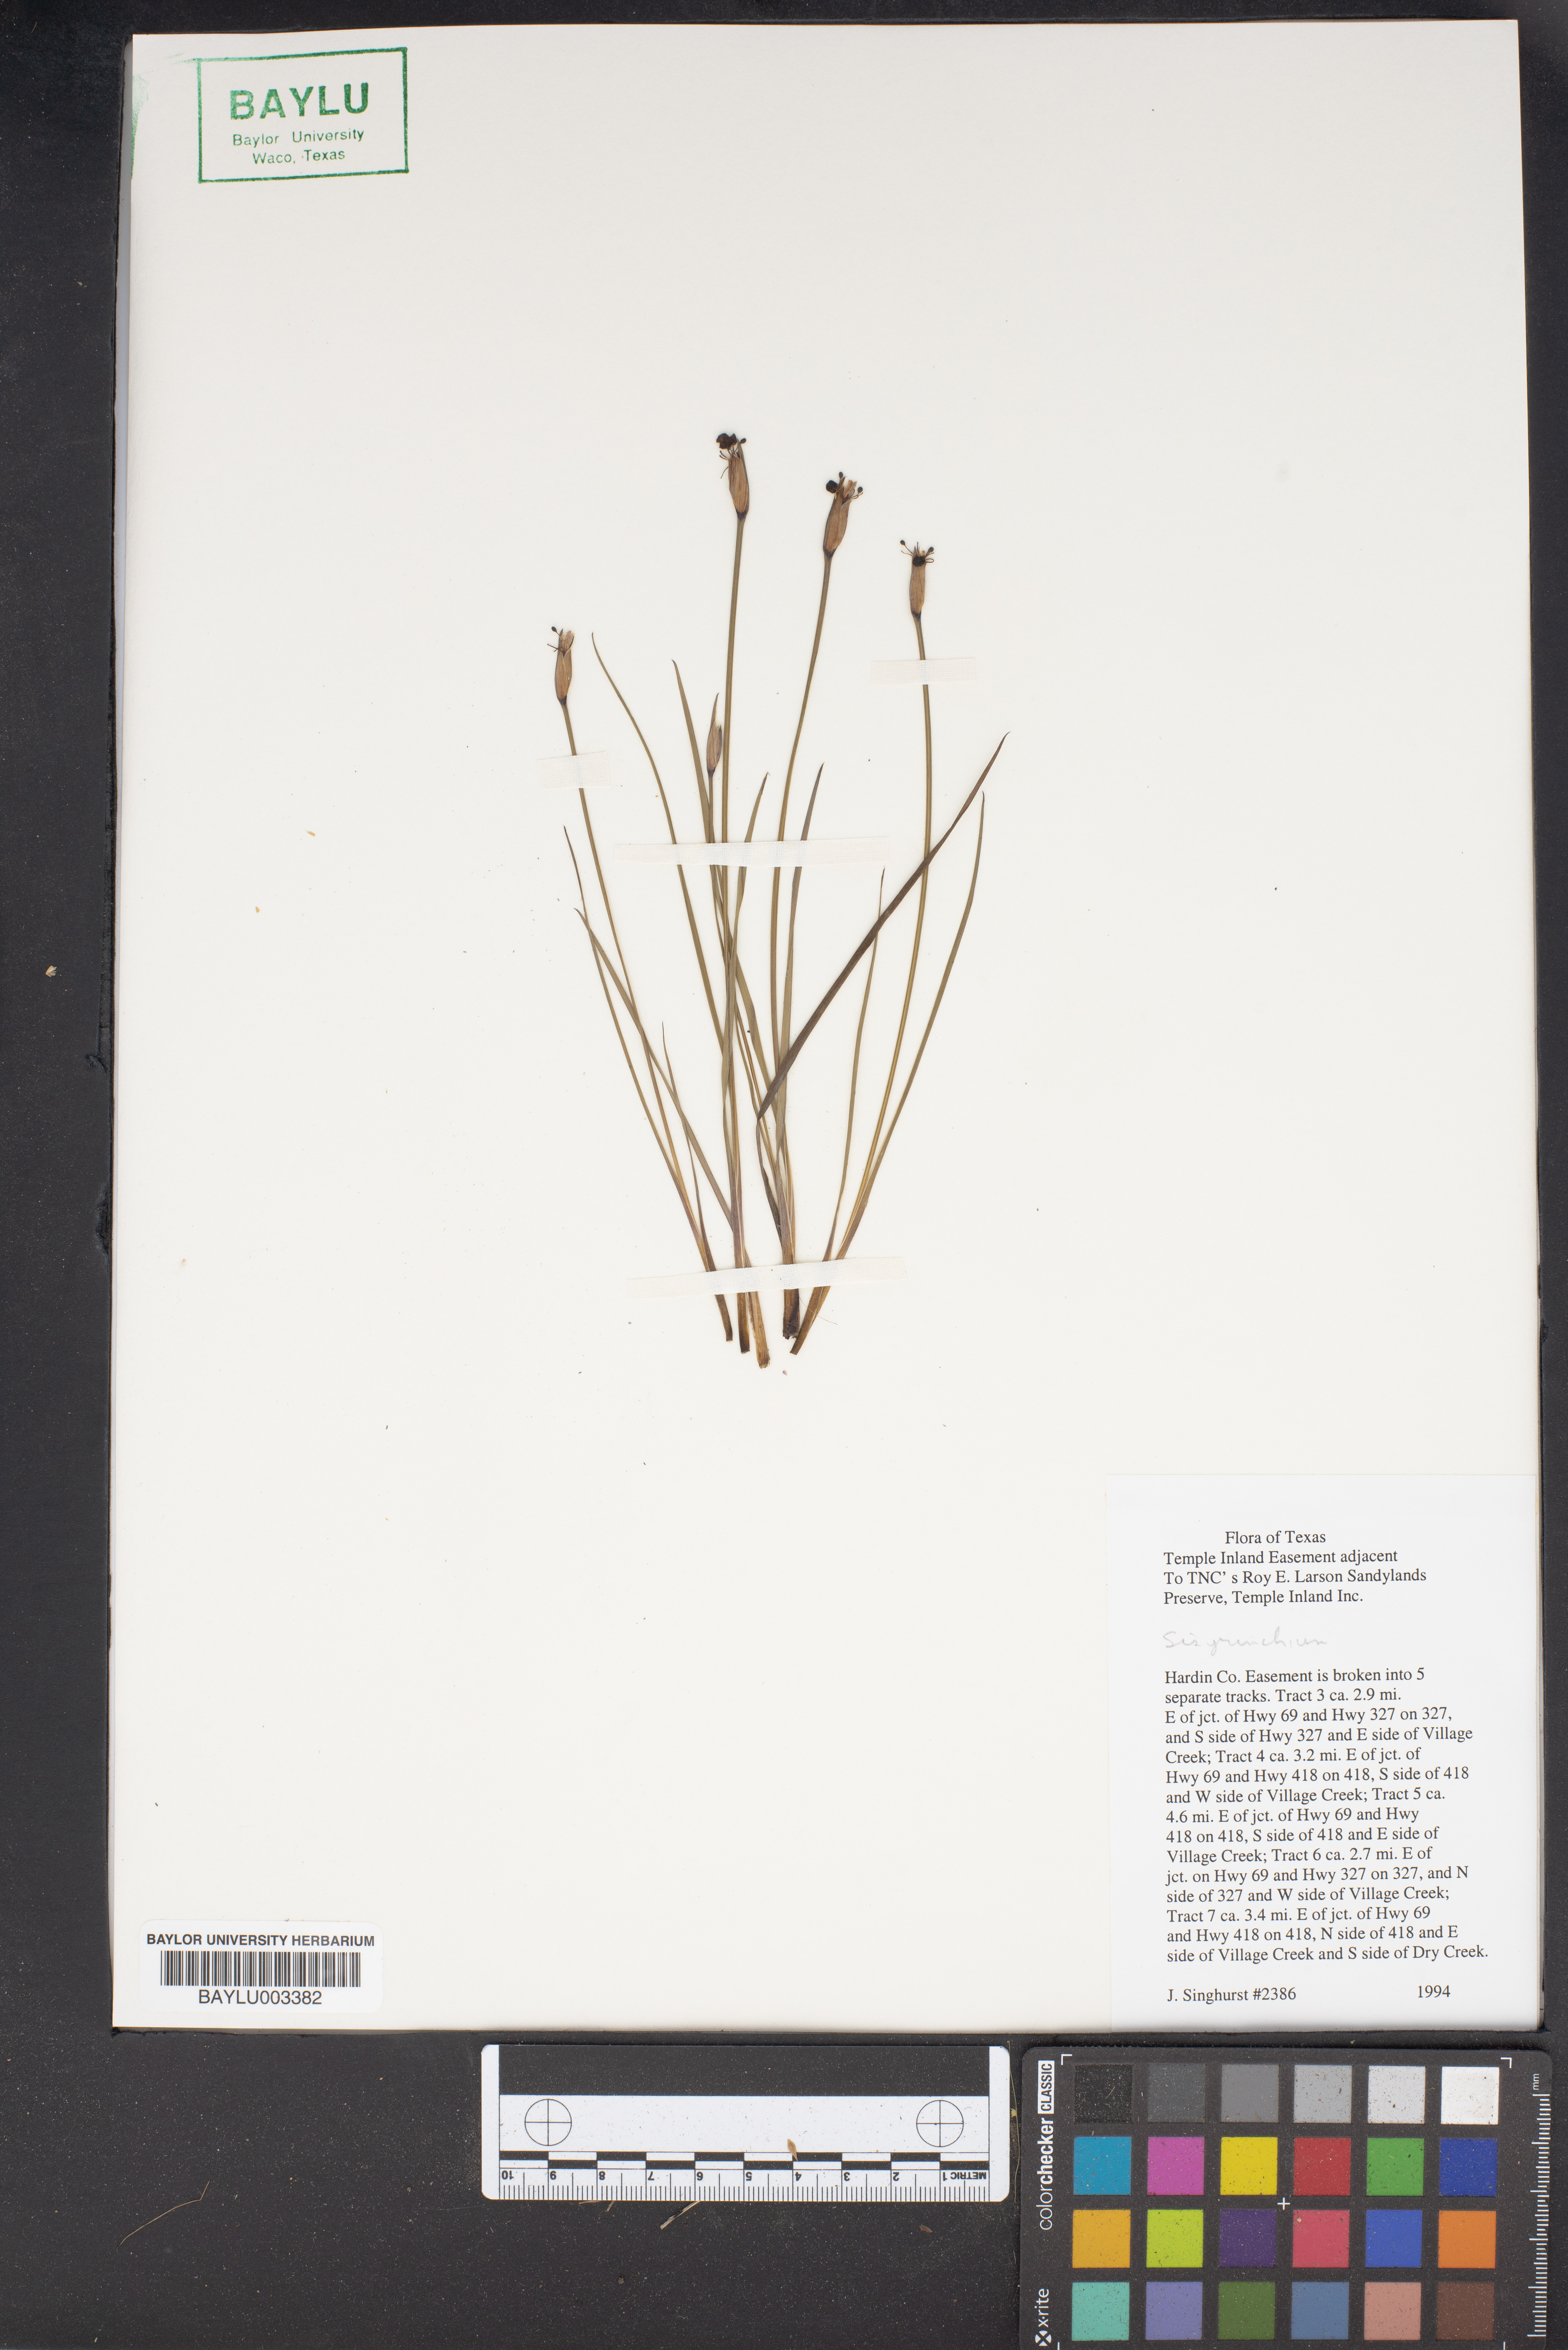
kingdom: Plantae
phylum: Tracheophyta
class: Liliopsida
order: Asparagales
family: Iridaceae
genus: Sisyrinchium
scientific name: Sisyrinchium
